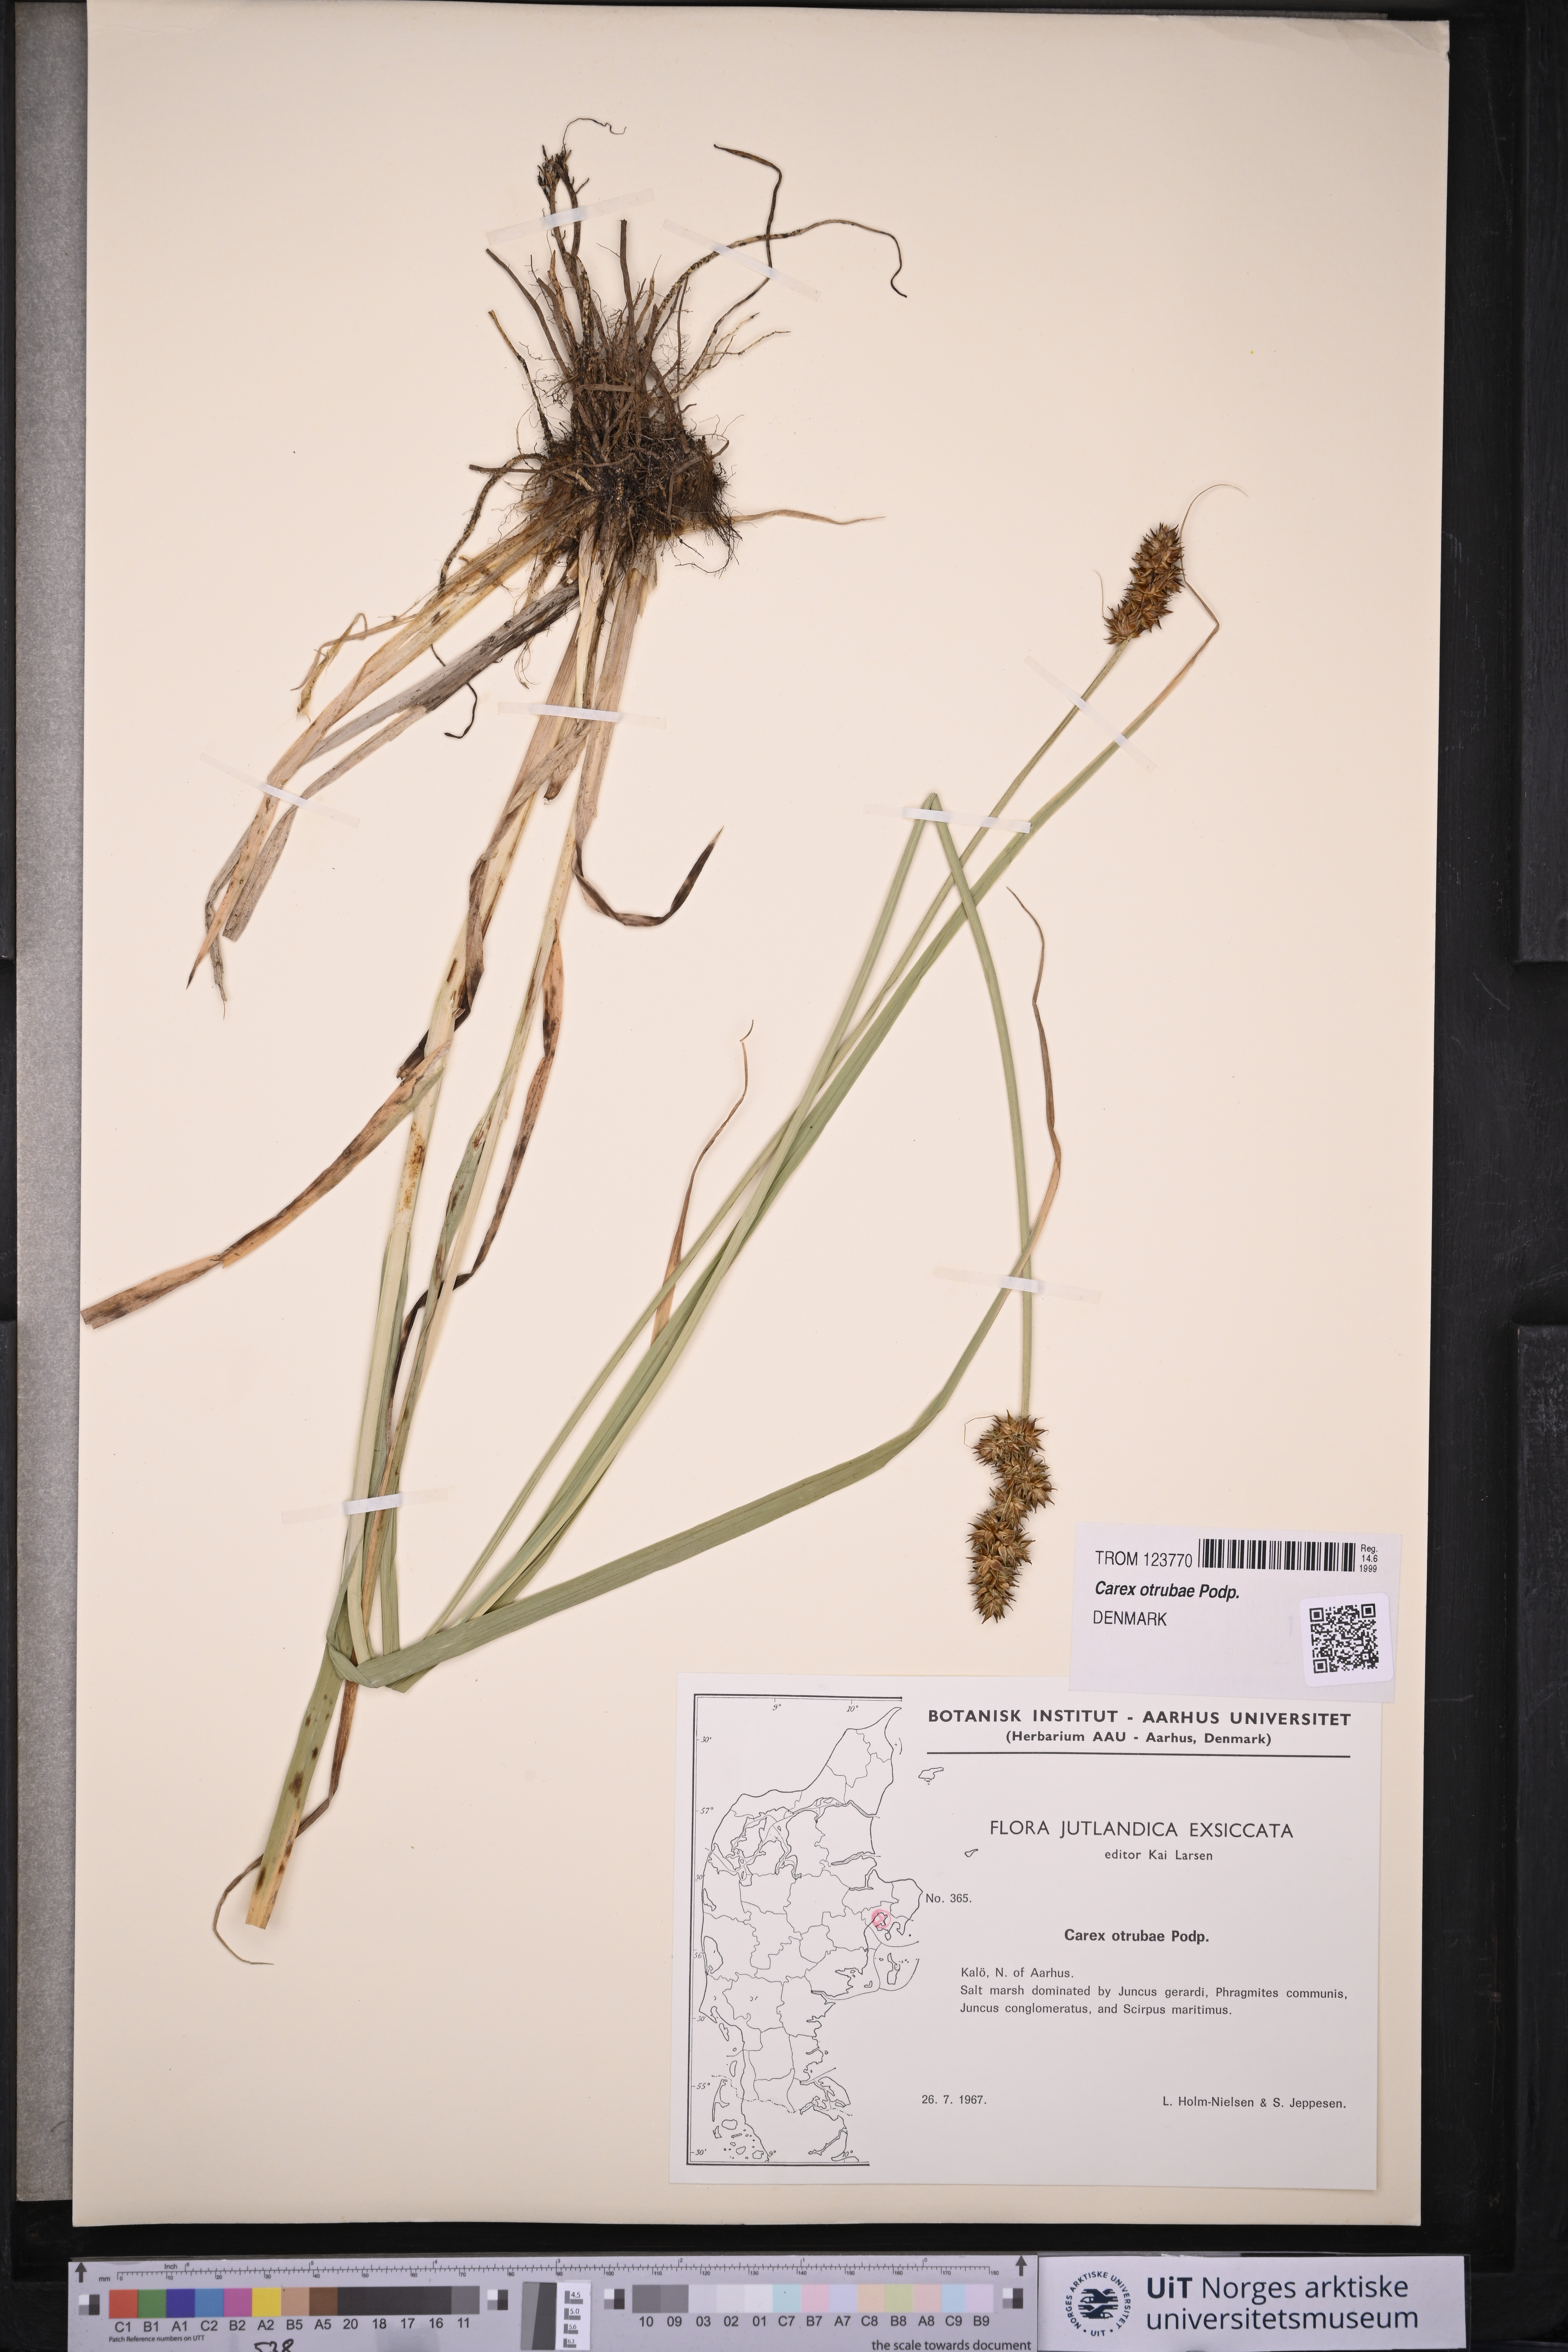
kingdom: Plantae
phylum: Tracheophyta
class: Liliopsida
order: Poales
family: Cyperaceae
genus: Carex
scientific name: Carex otrubae
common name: False fox-sedge
